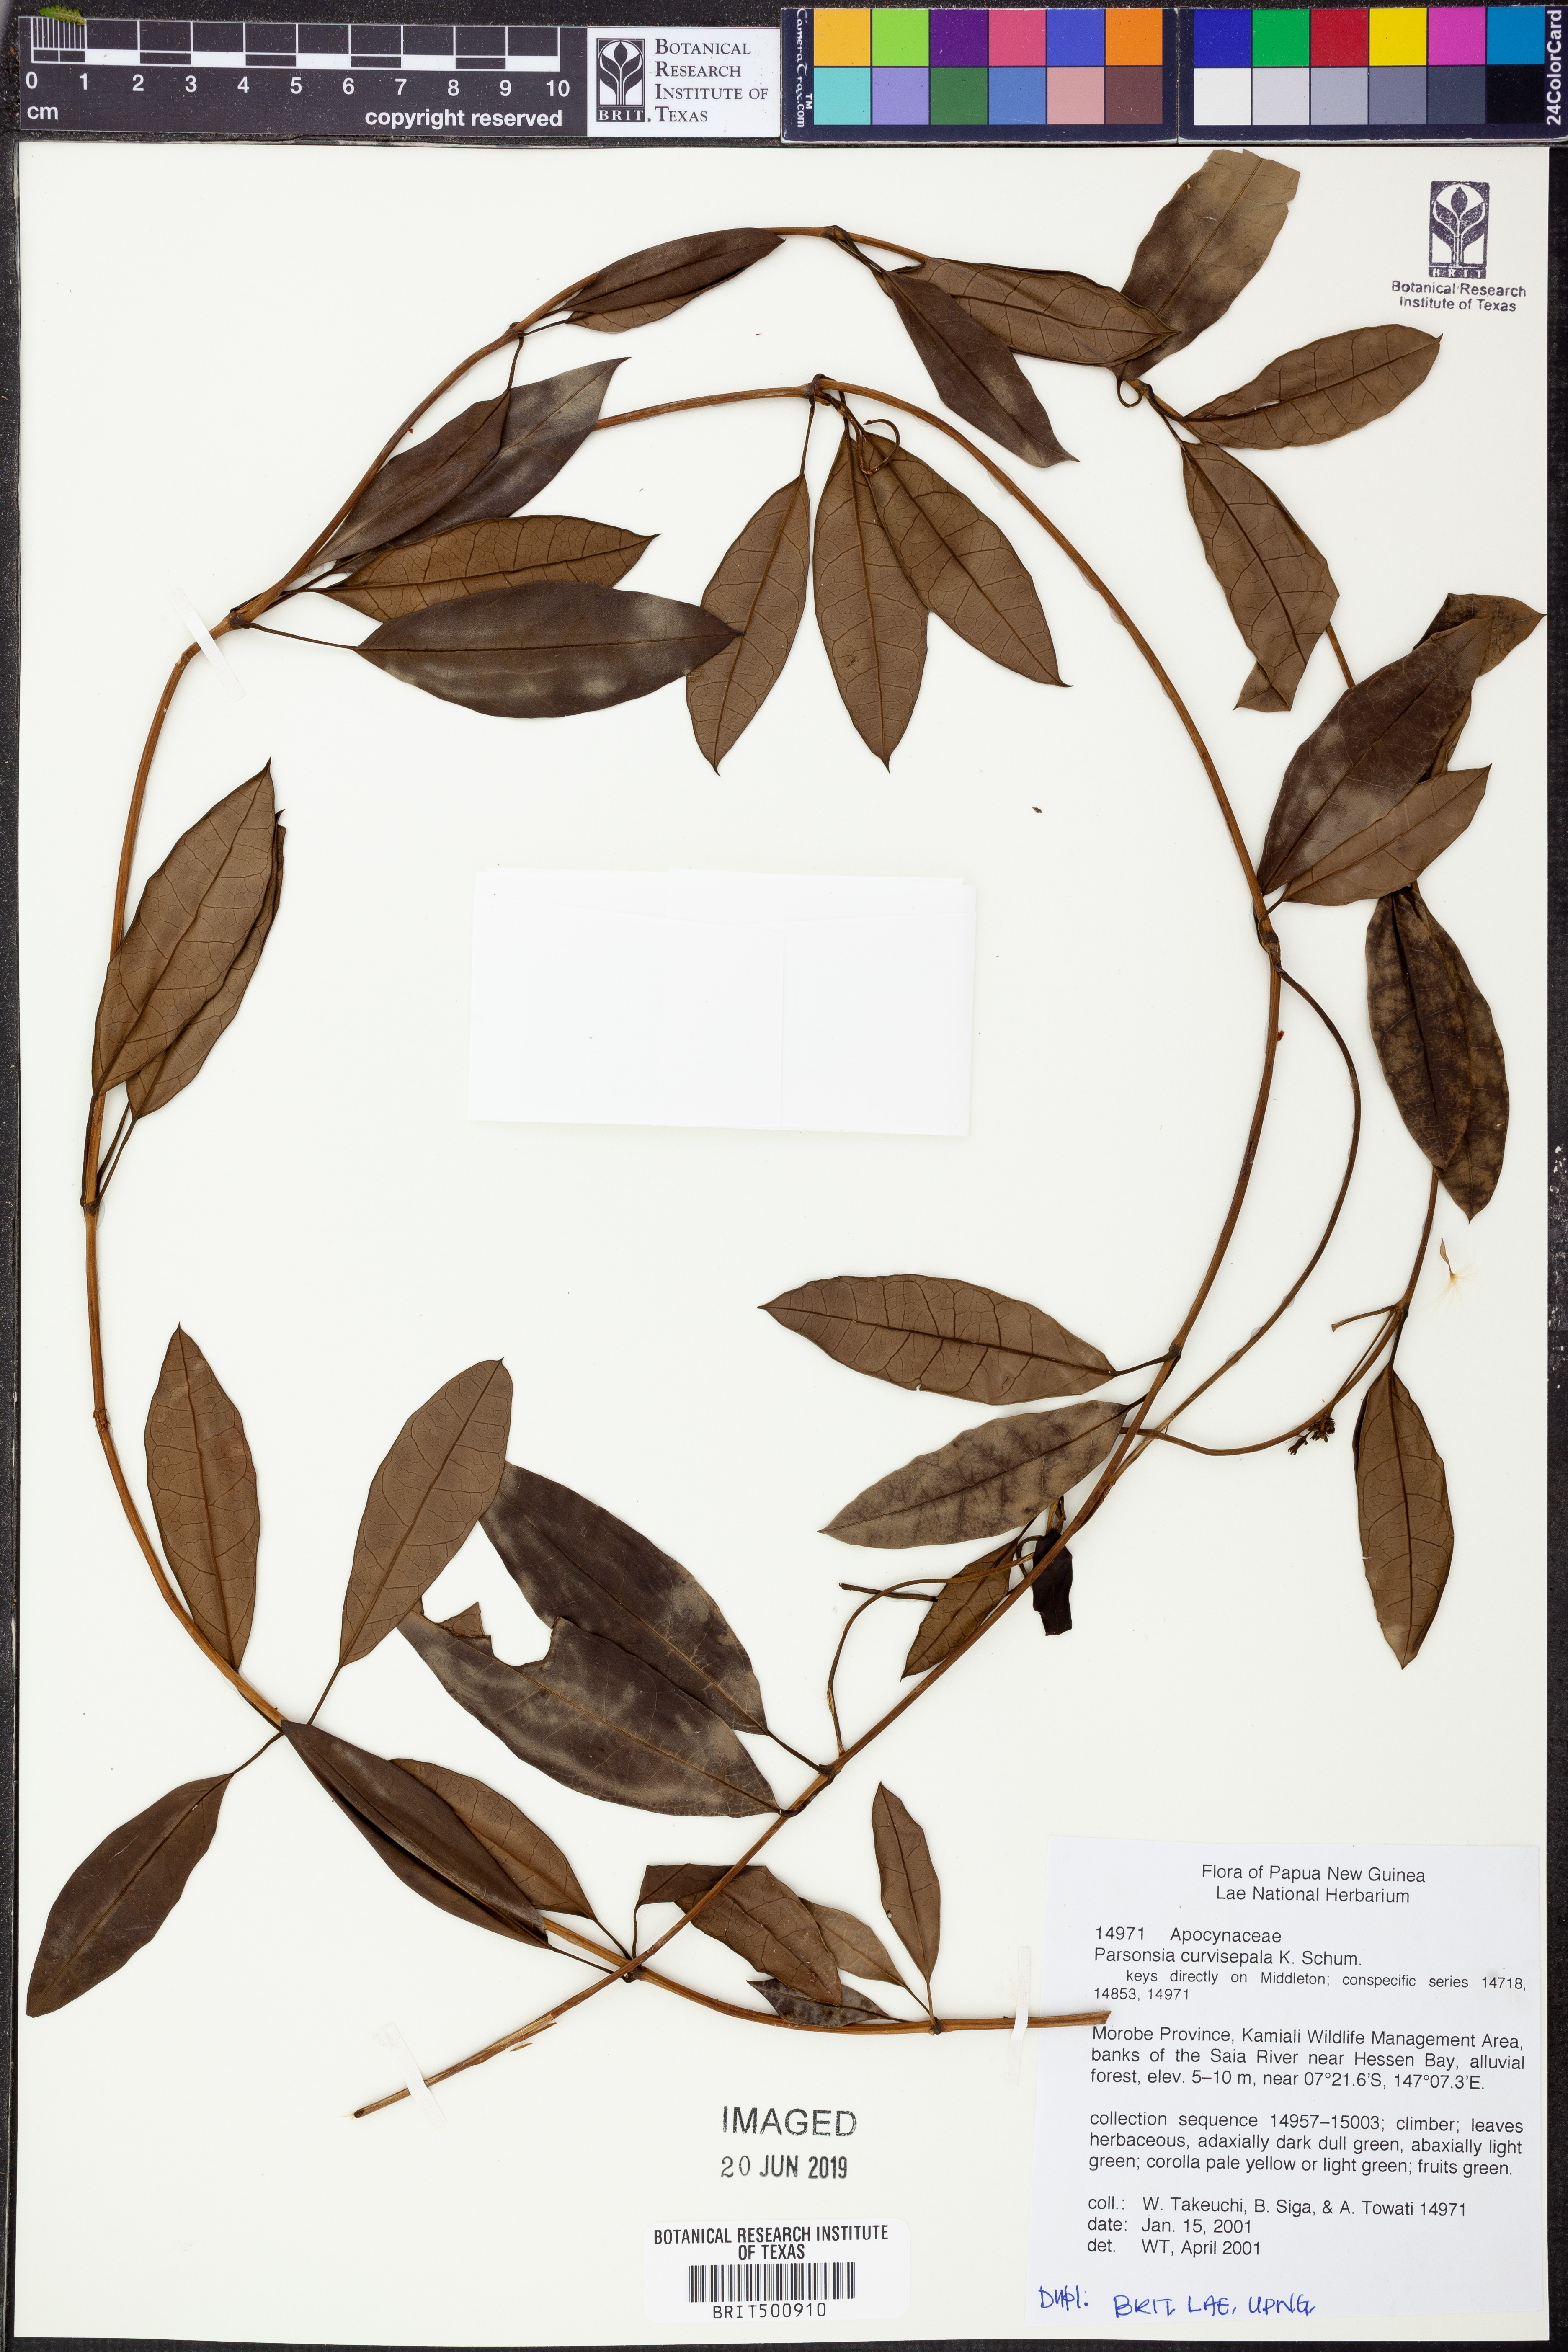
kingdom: Plantae
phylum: Tracheophyta
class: Magnoliopsida
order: Gentianales
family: Apocynaceae
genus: Parsonsia
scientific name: Parsonsia curvisepala
